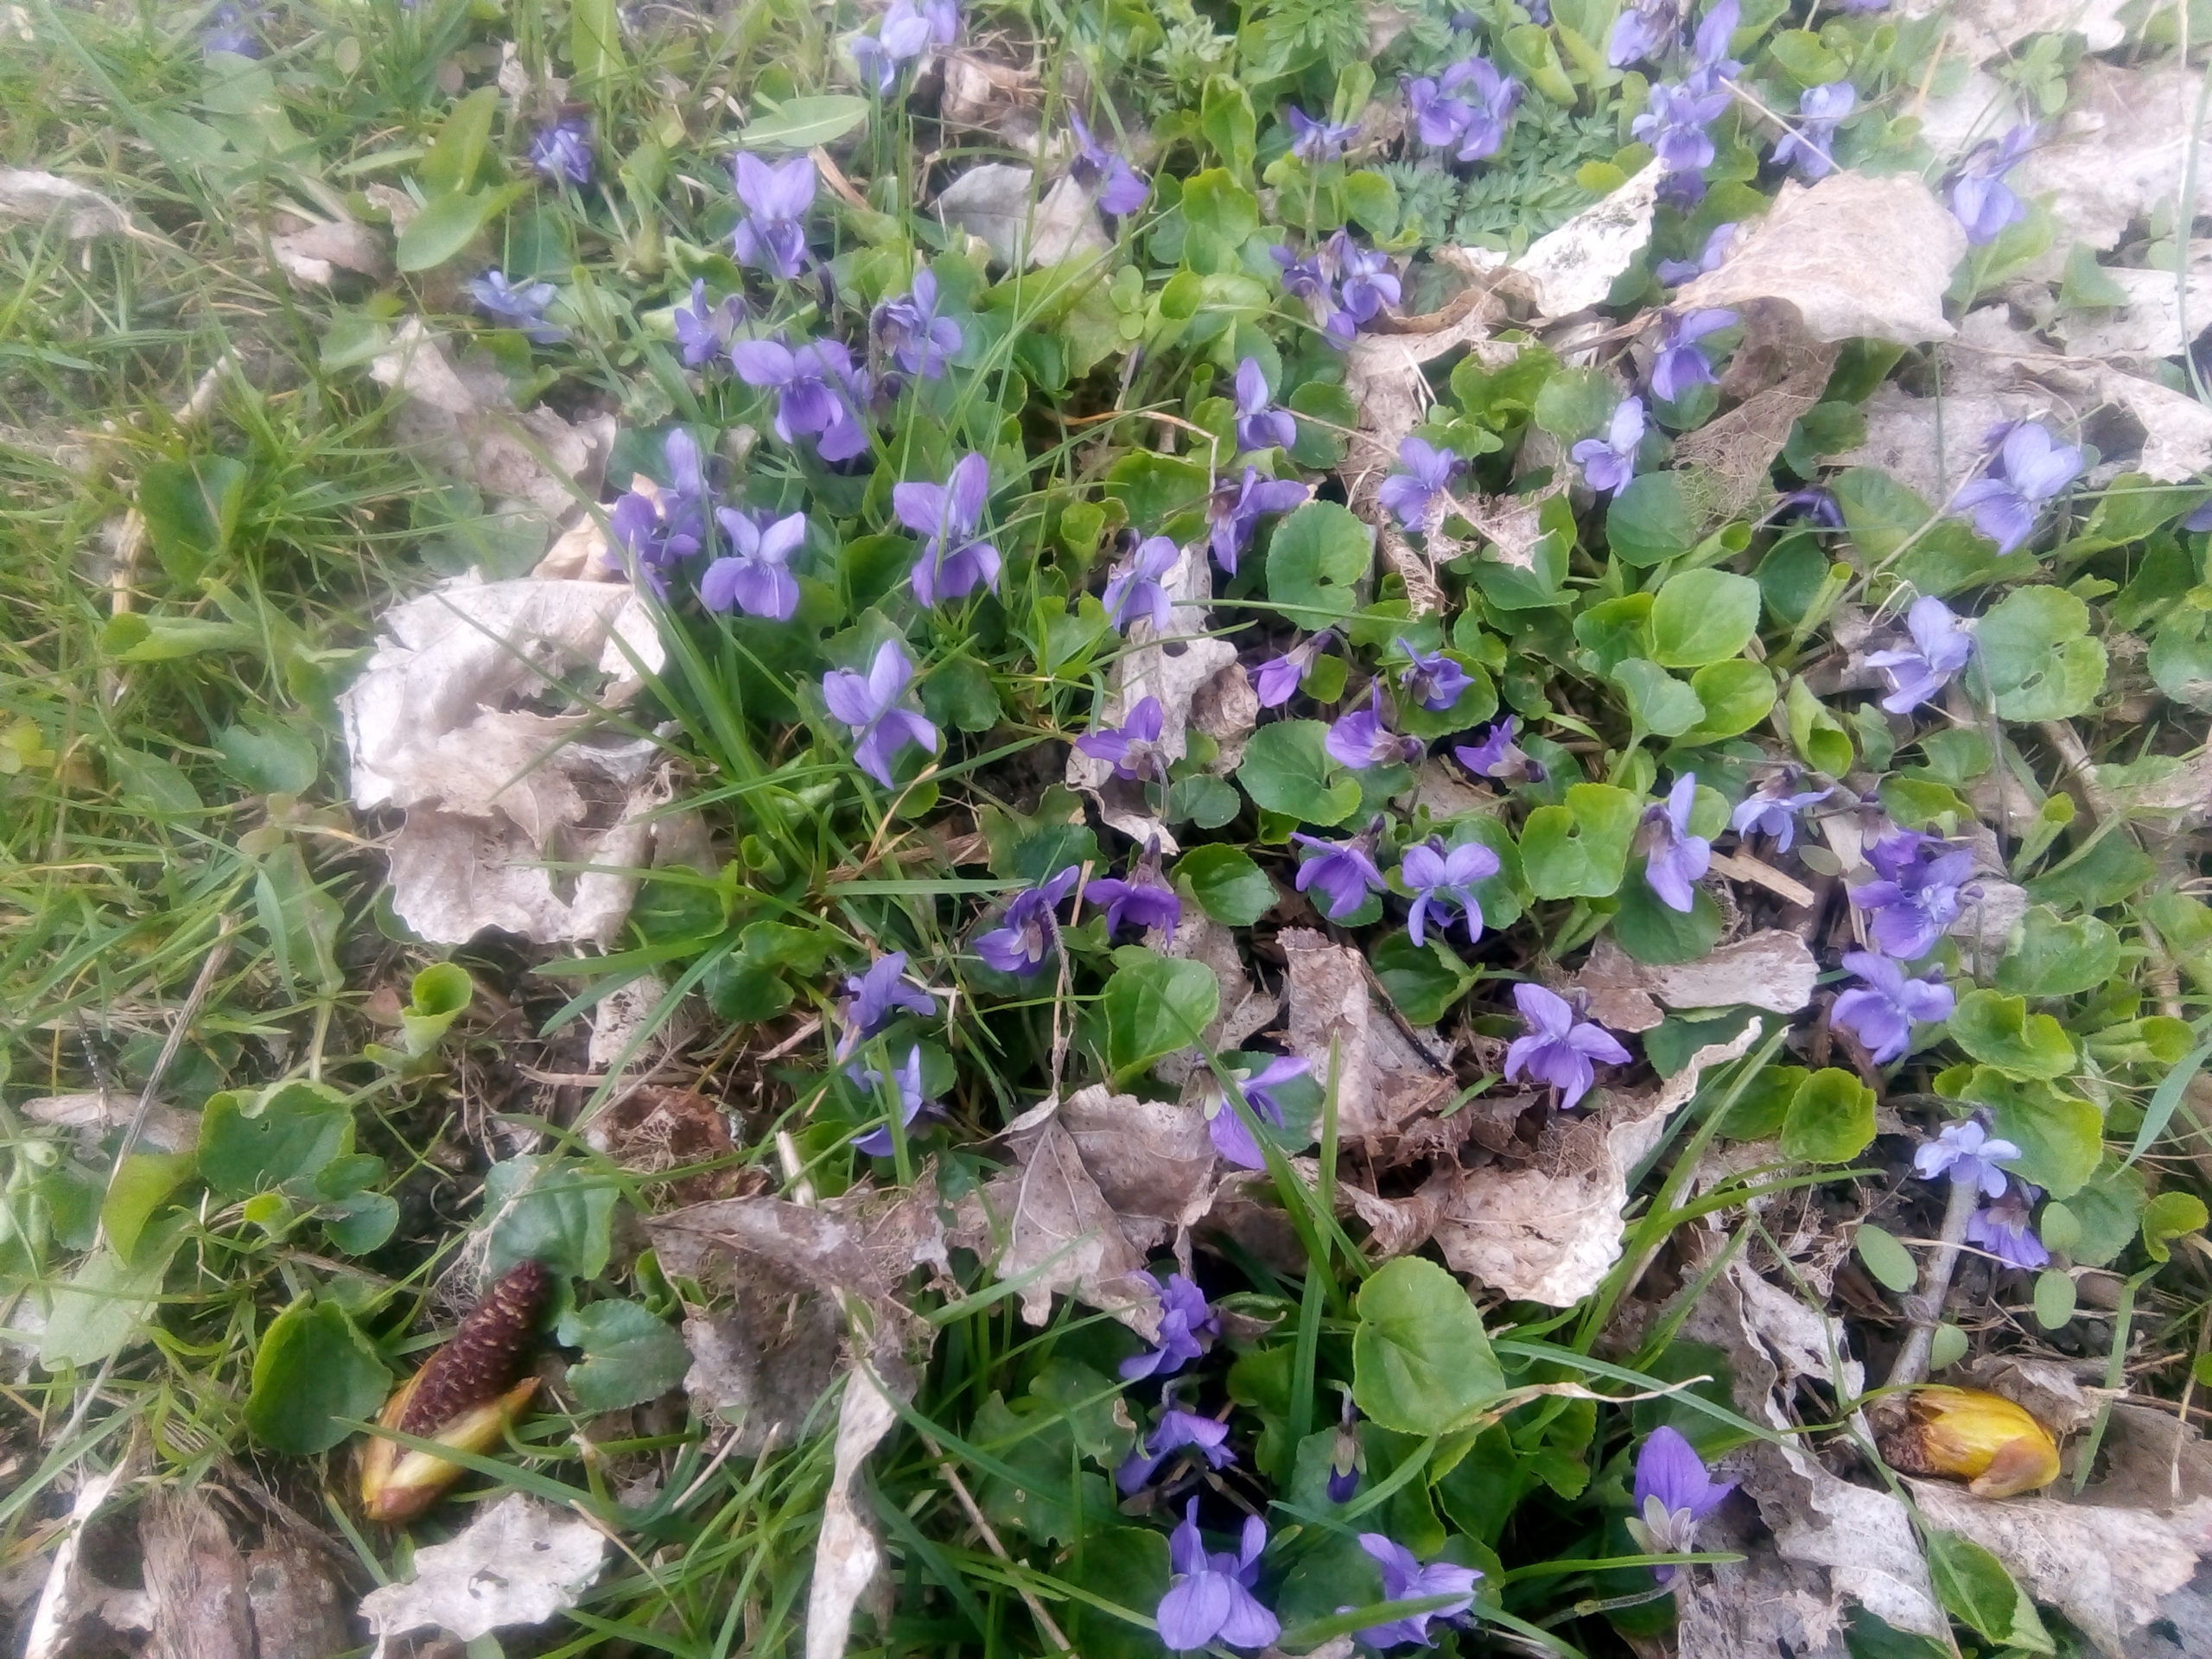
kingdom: Plantae
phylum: Tracheophyta
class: Magnoliopsida
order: Malpighiales
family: Violaceae
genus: Viola
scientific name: Viola odorata
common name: Marts-viol
